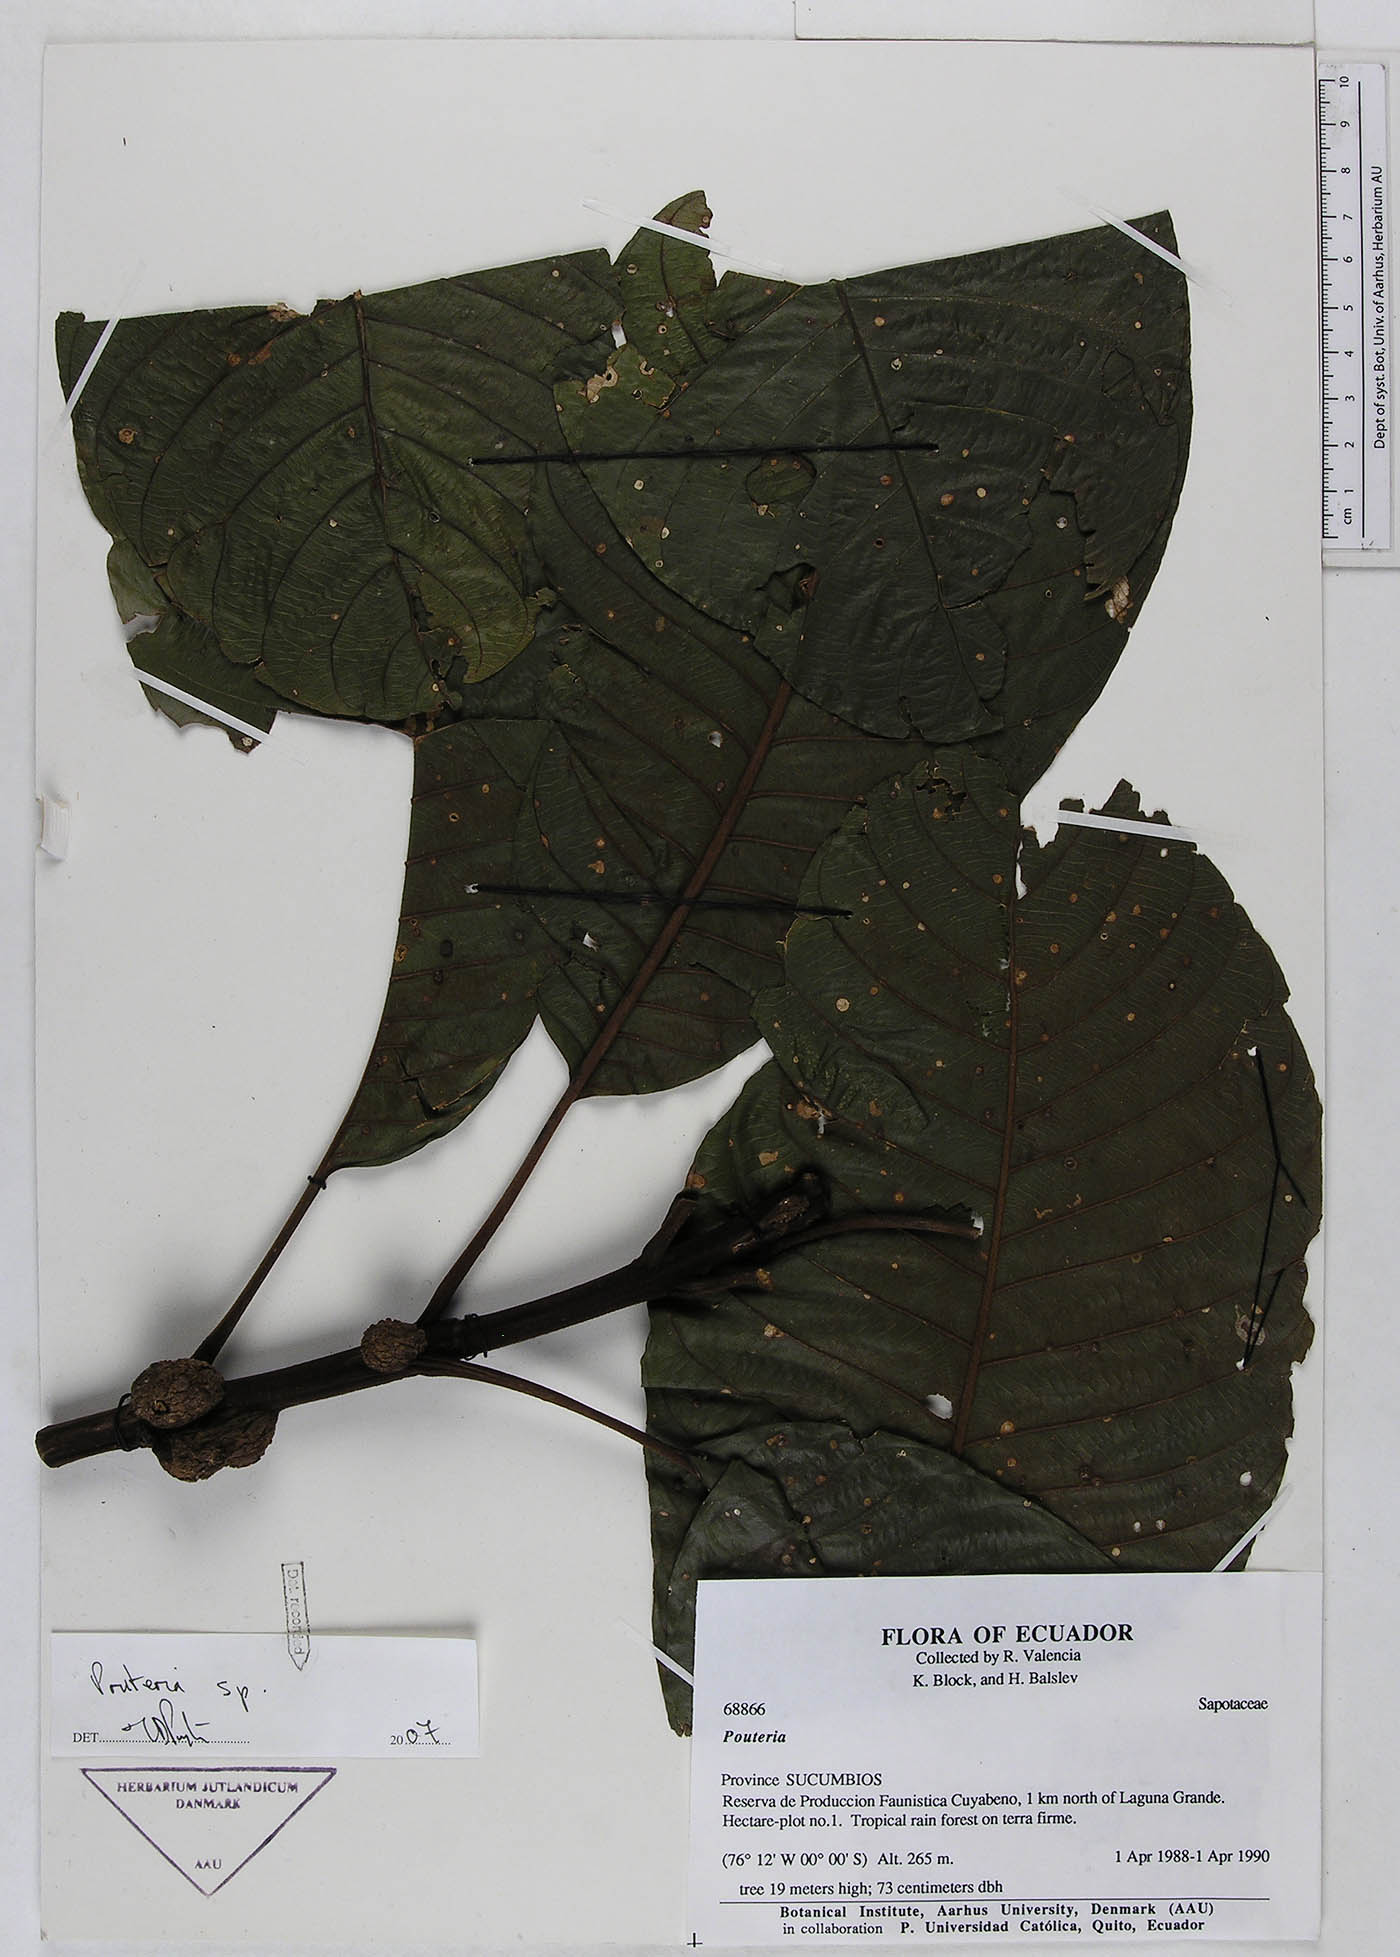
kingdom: Plantae
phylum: Tracheophyta
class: Magnoliopsida
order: Ericales
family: Sapotaceae
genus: Pouteria
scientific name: Pouteria
